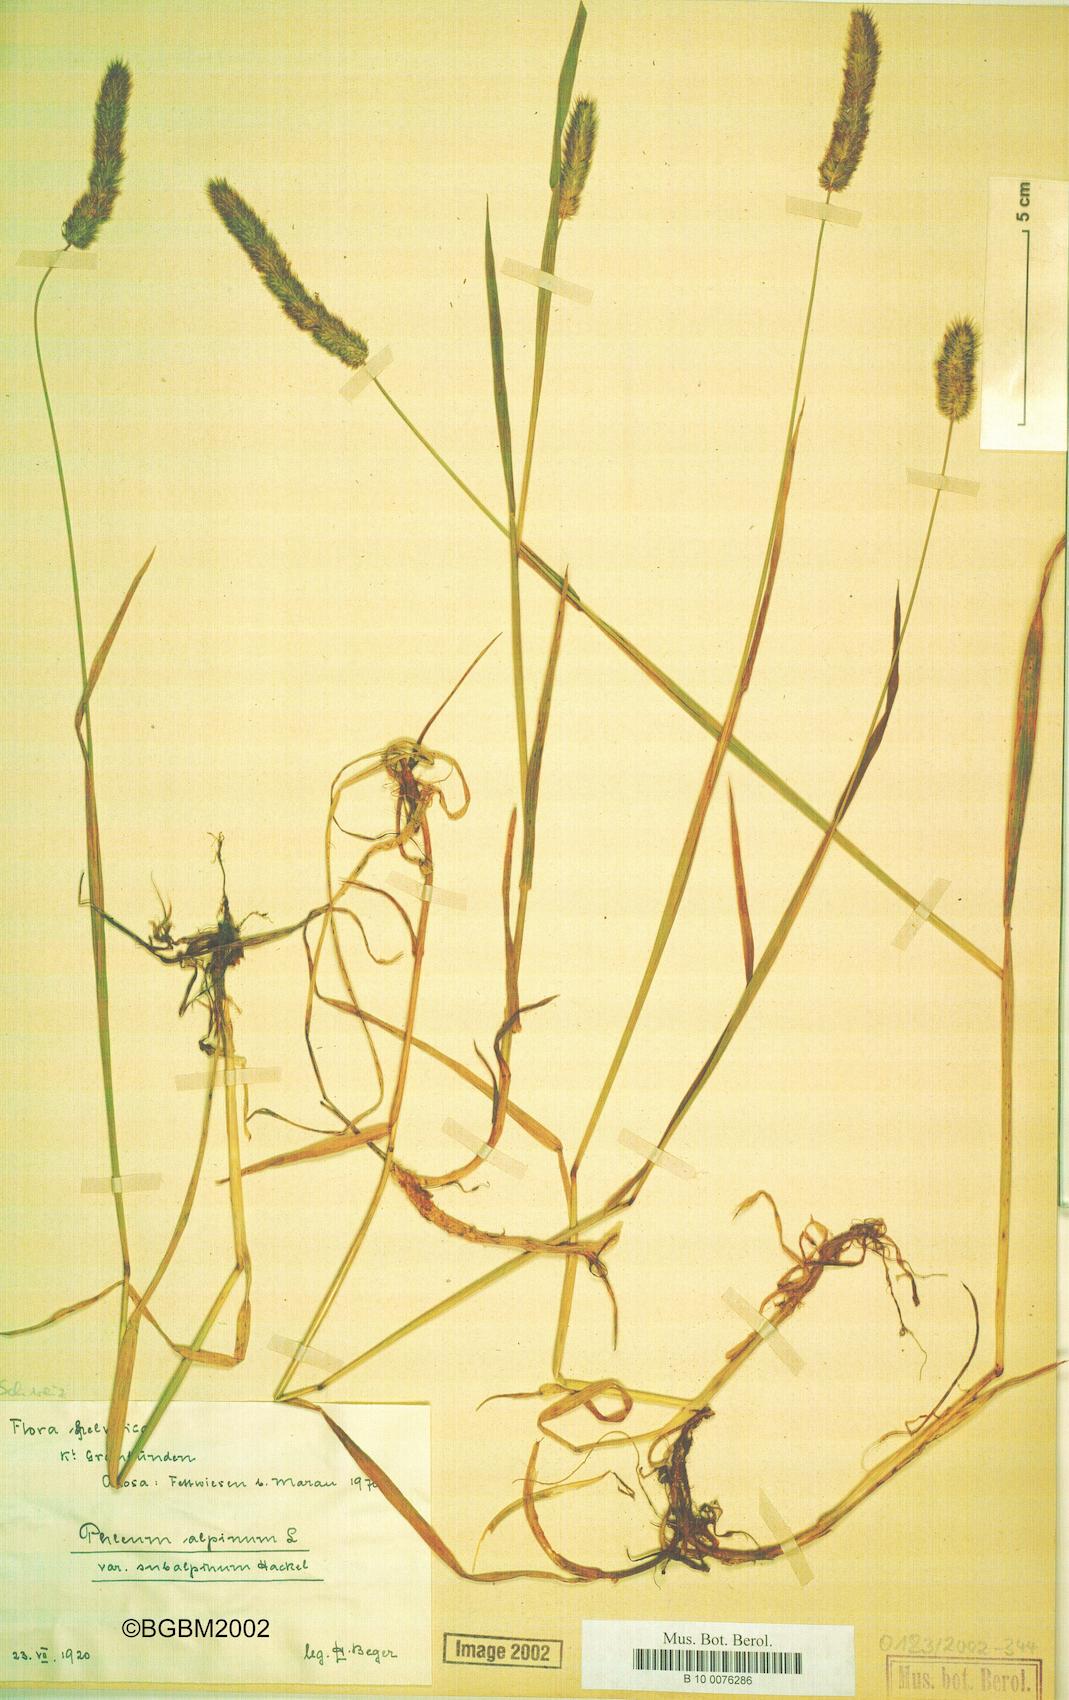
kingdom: Plantae
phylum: Tracheophyta
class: Liliopsida
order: Poales
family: Poaceae
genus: Phleum
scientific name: Phleum alpinum
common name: Alpine cat's-tail
